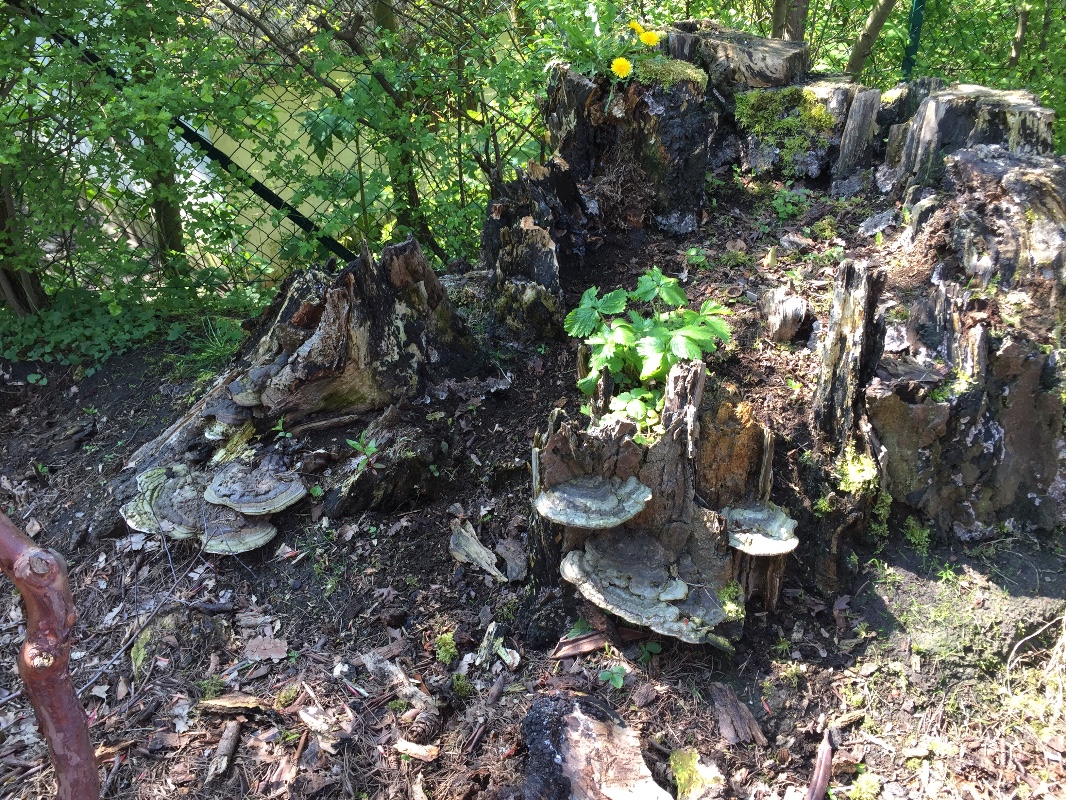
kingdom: Fungi
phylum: Basidiomycota
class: Agaricomycetes
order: Polyporales
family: Polyporaceae
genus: Ganoderma
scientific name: Ganoderma applanatum
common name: flad lakporesvamp
